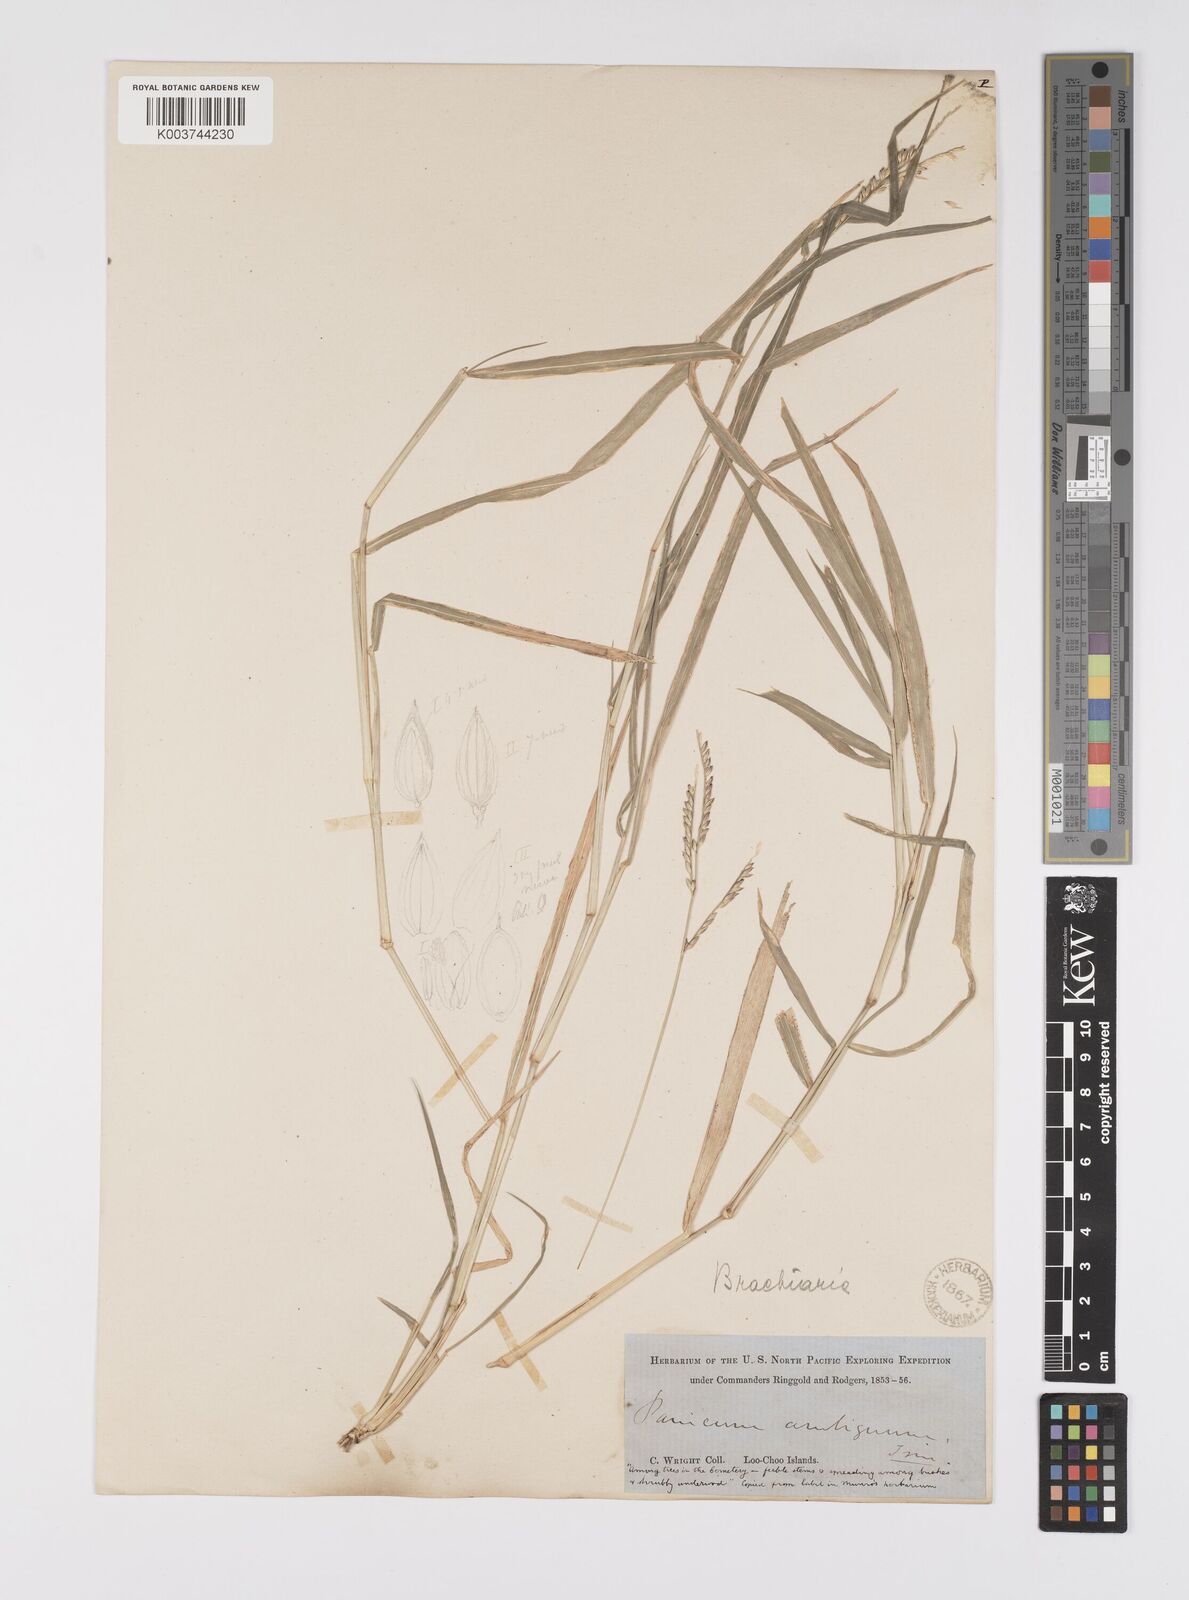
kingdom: Plantae
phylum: Tracheophyta
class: Liliopsida
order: Poales
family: Poaceae
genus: Urochloa
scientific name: Urochloa glumaris
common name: Thurston grass
